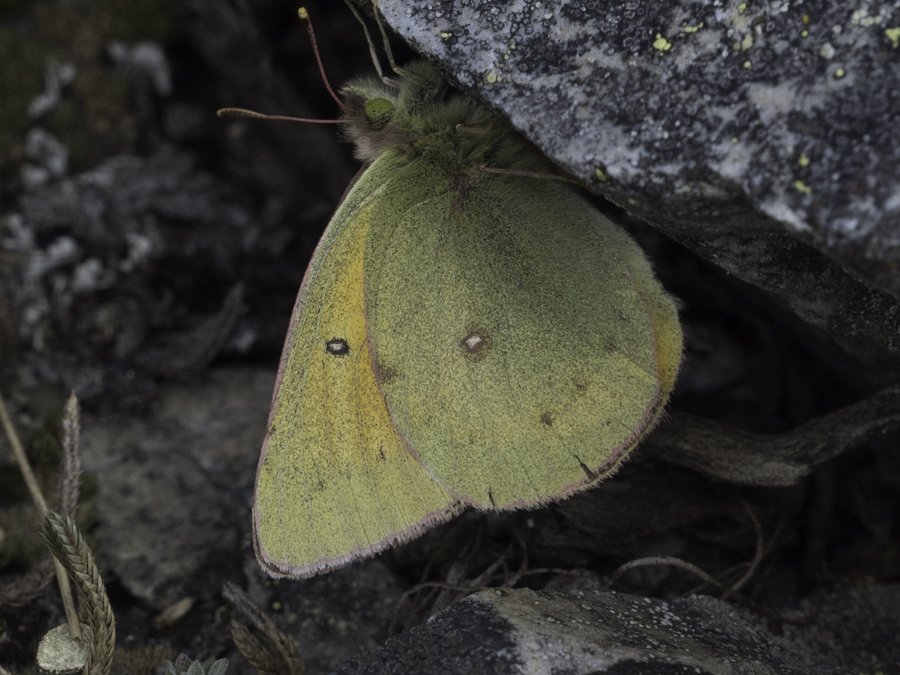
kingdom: Animalia
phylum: Arthropoda
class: Insecta
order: Lepidoptera
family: Pieridae
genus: Colias
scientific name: Colias eurytheme
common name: Orange Sulphur
